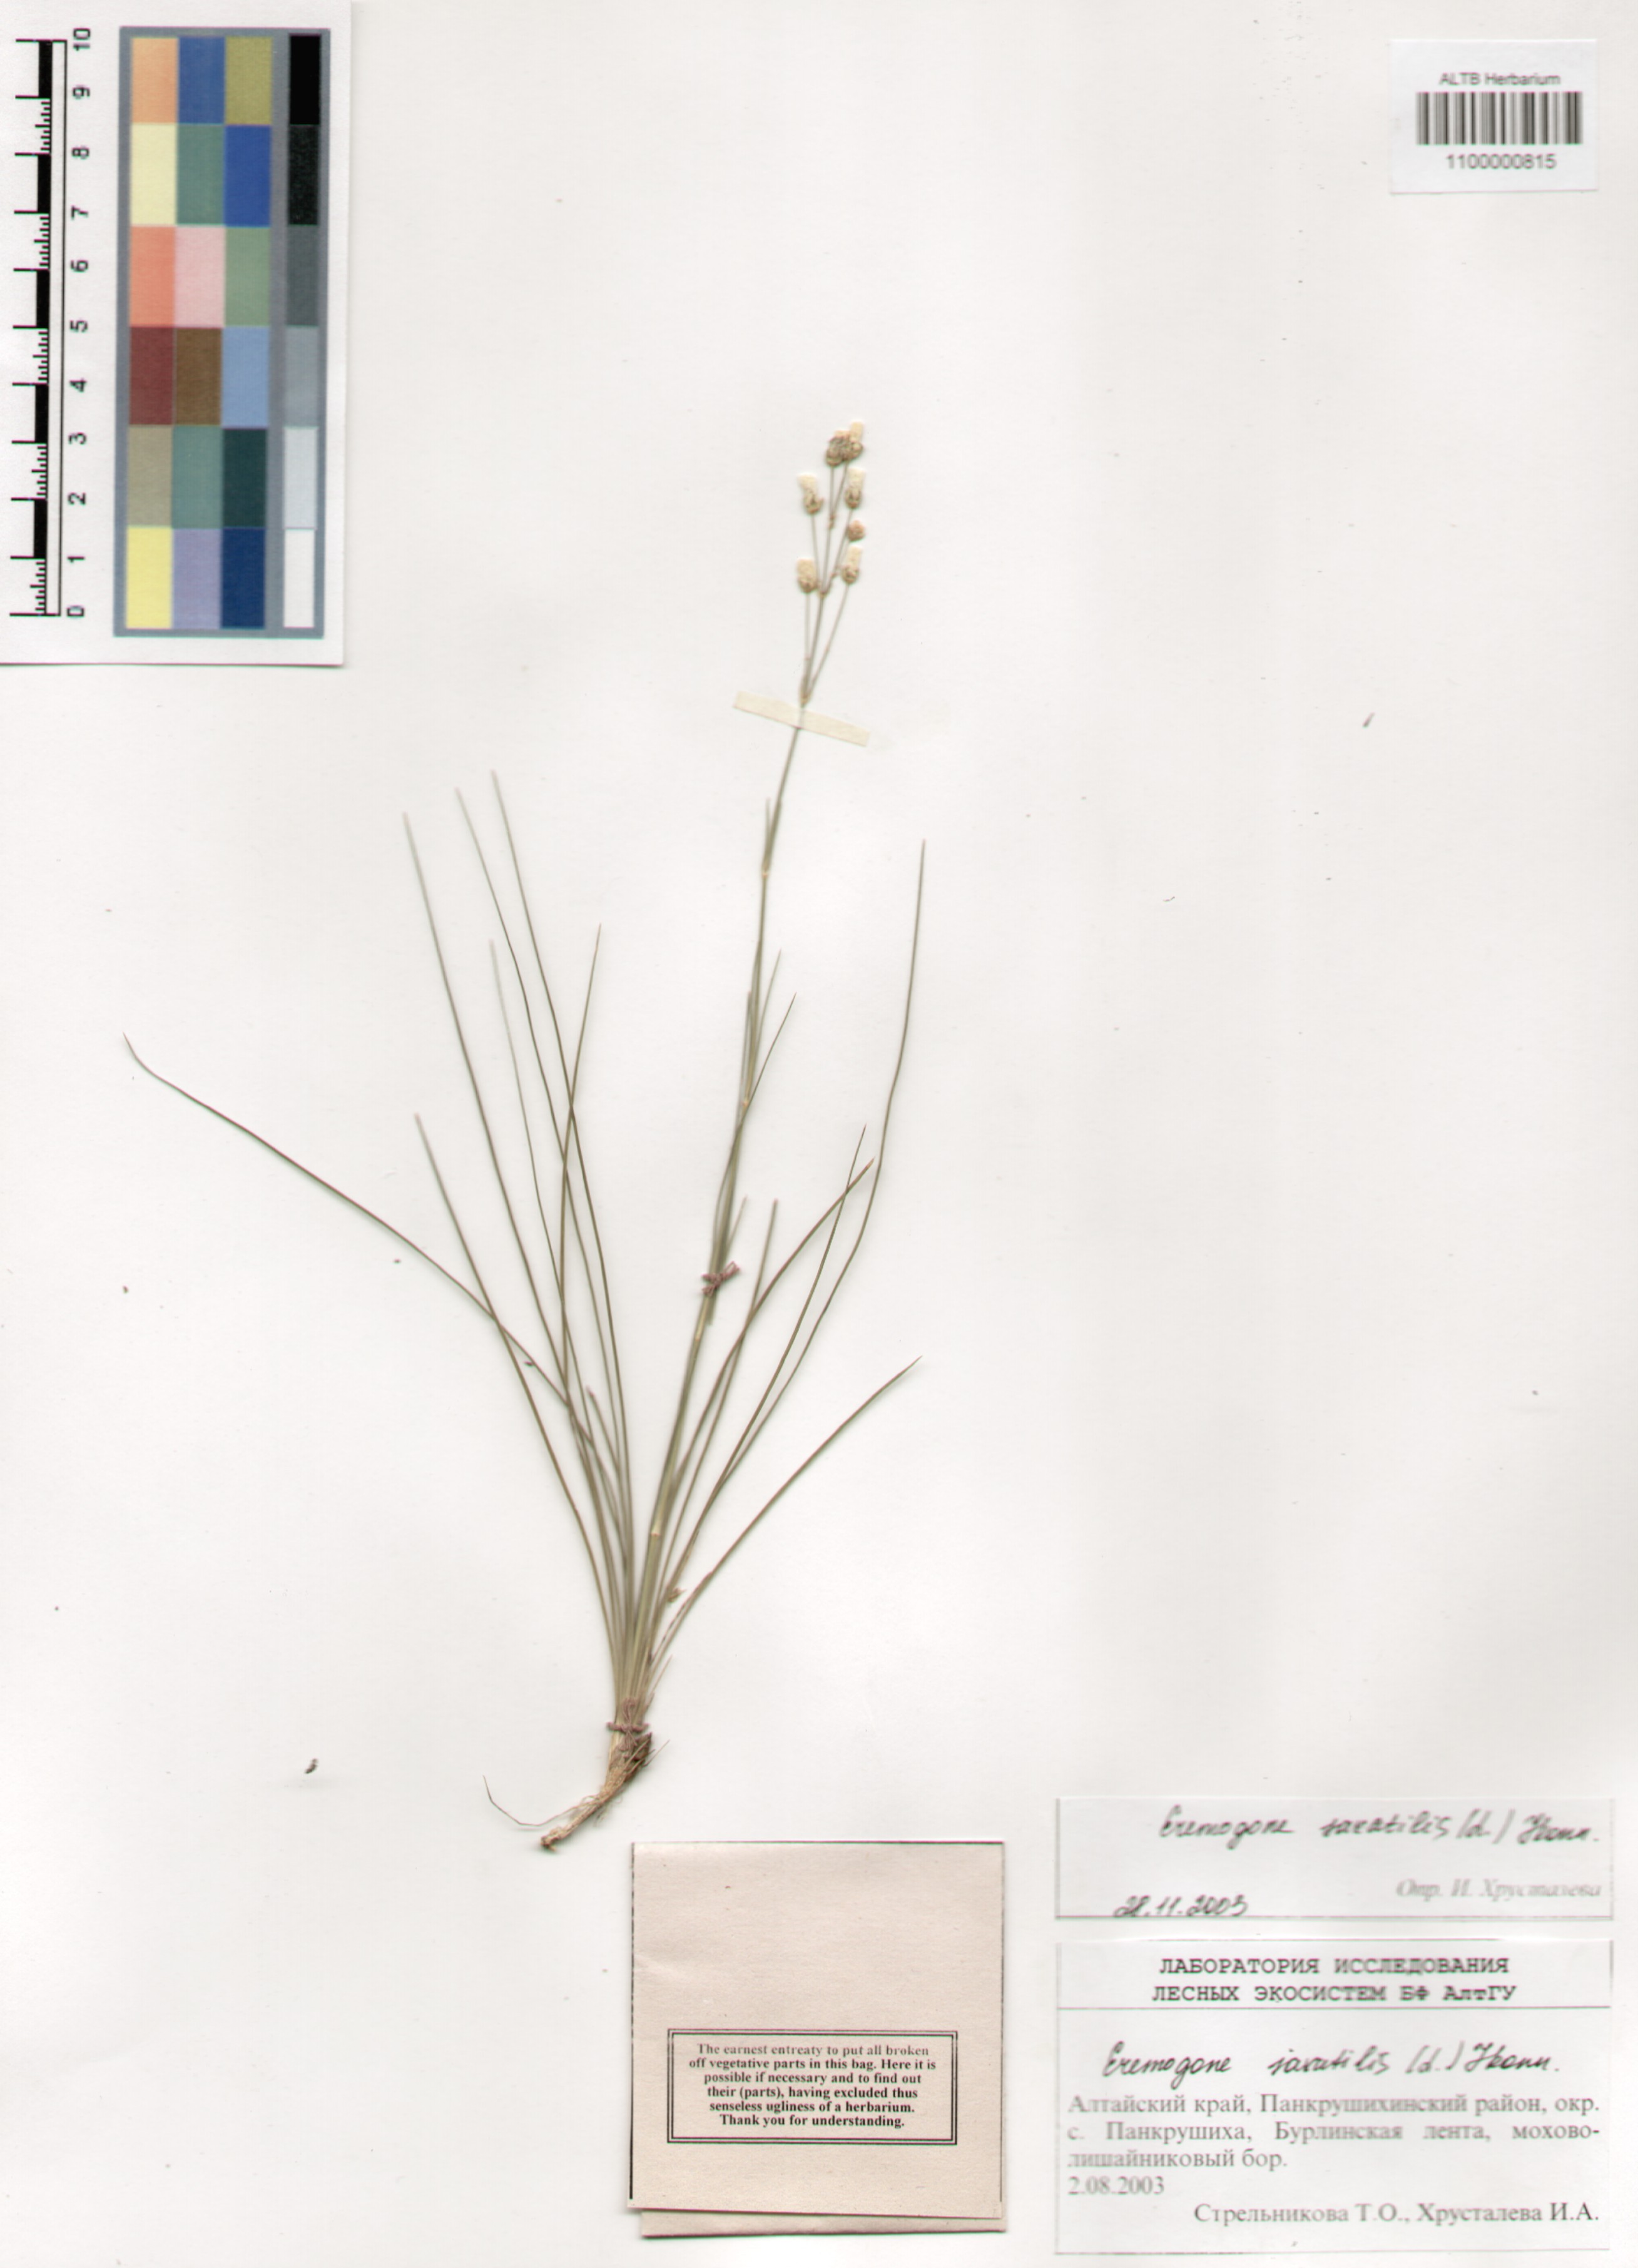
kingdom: Plantae
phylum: Tracheophyta
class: Magnoliopsida
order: Caryophyllales
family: Caryophyllaceae
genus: Eremogone
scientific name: Eremogone saxatilis
